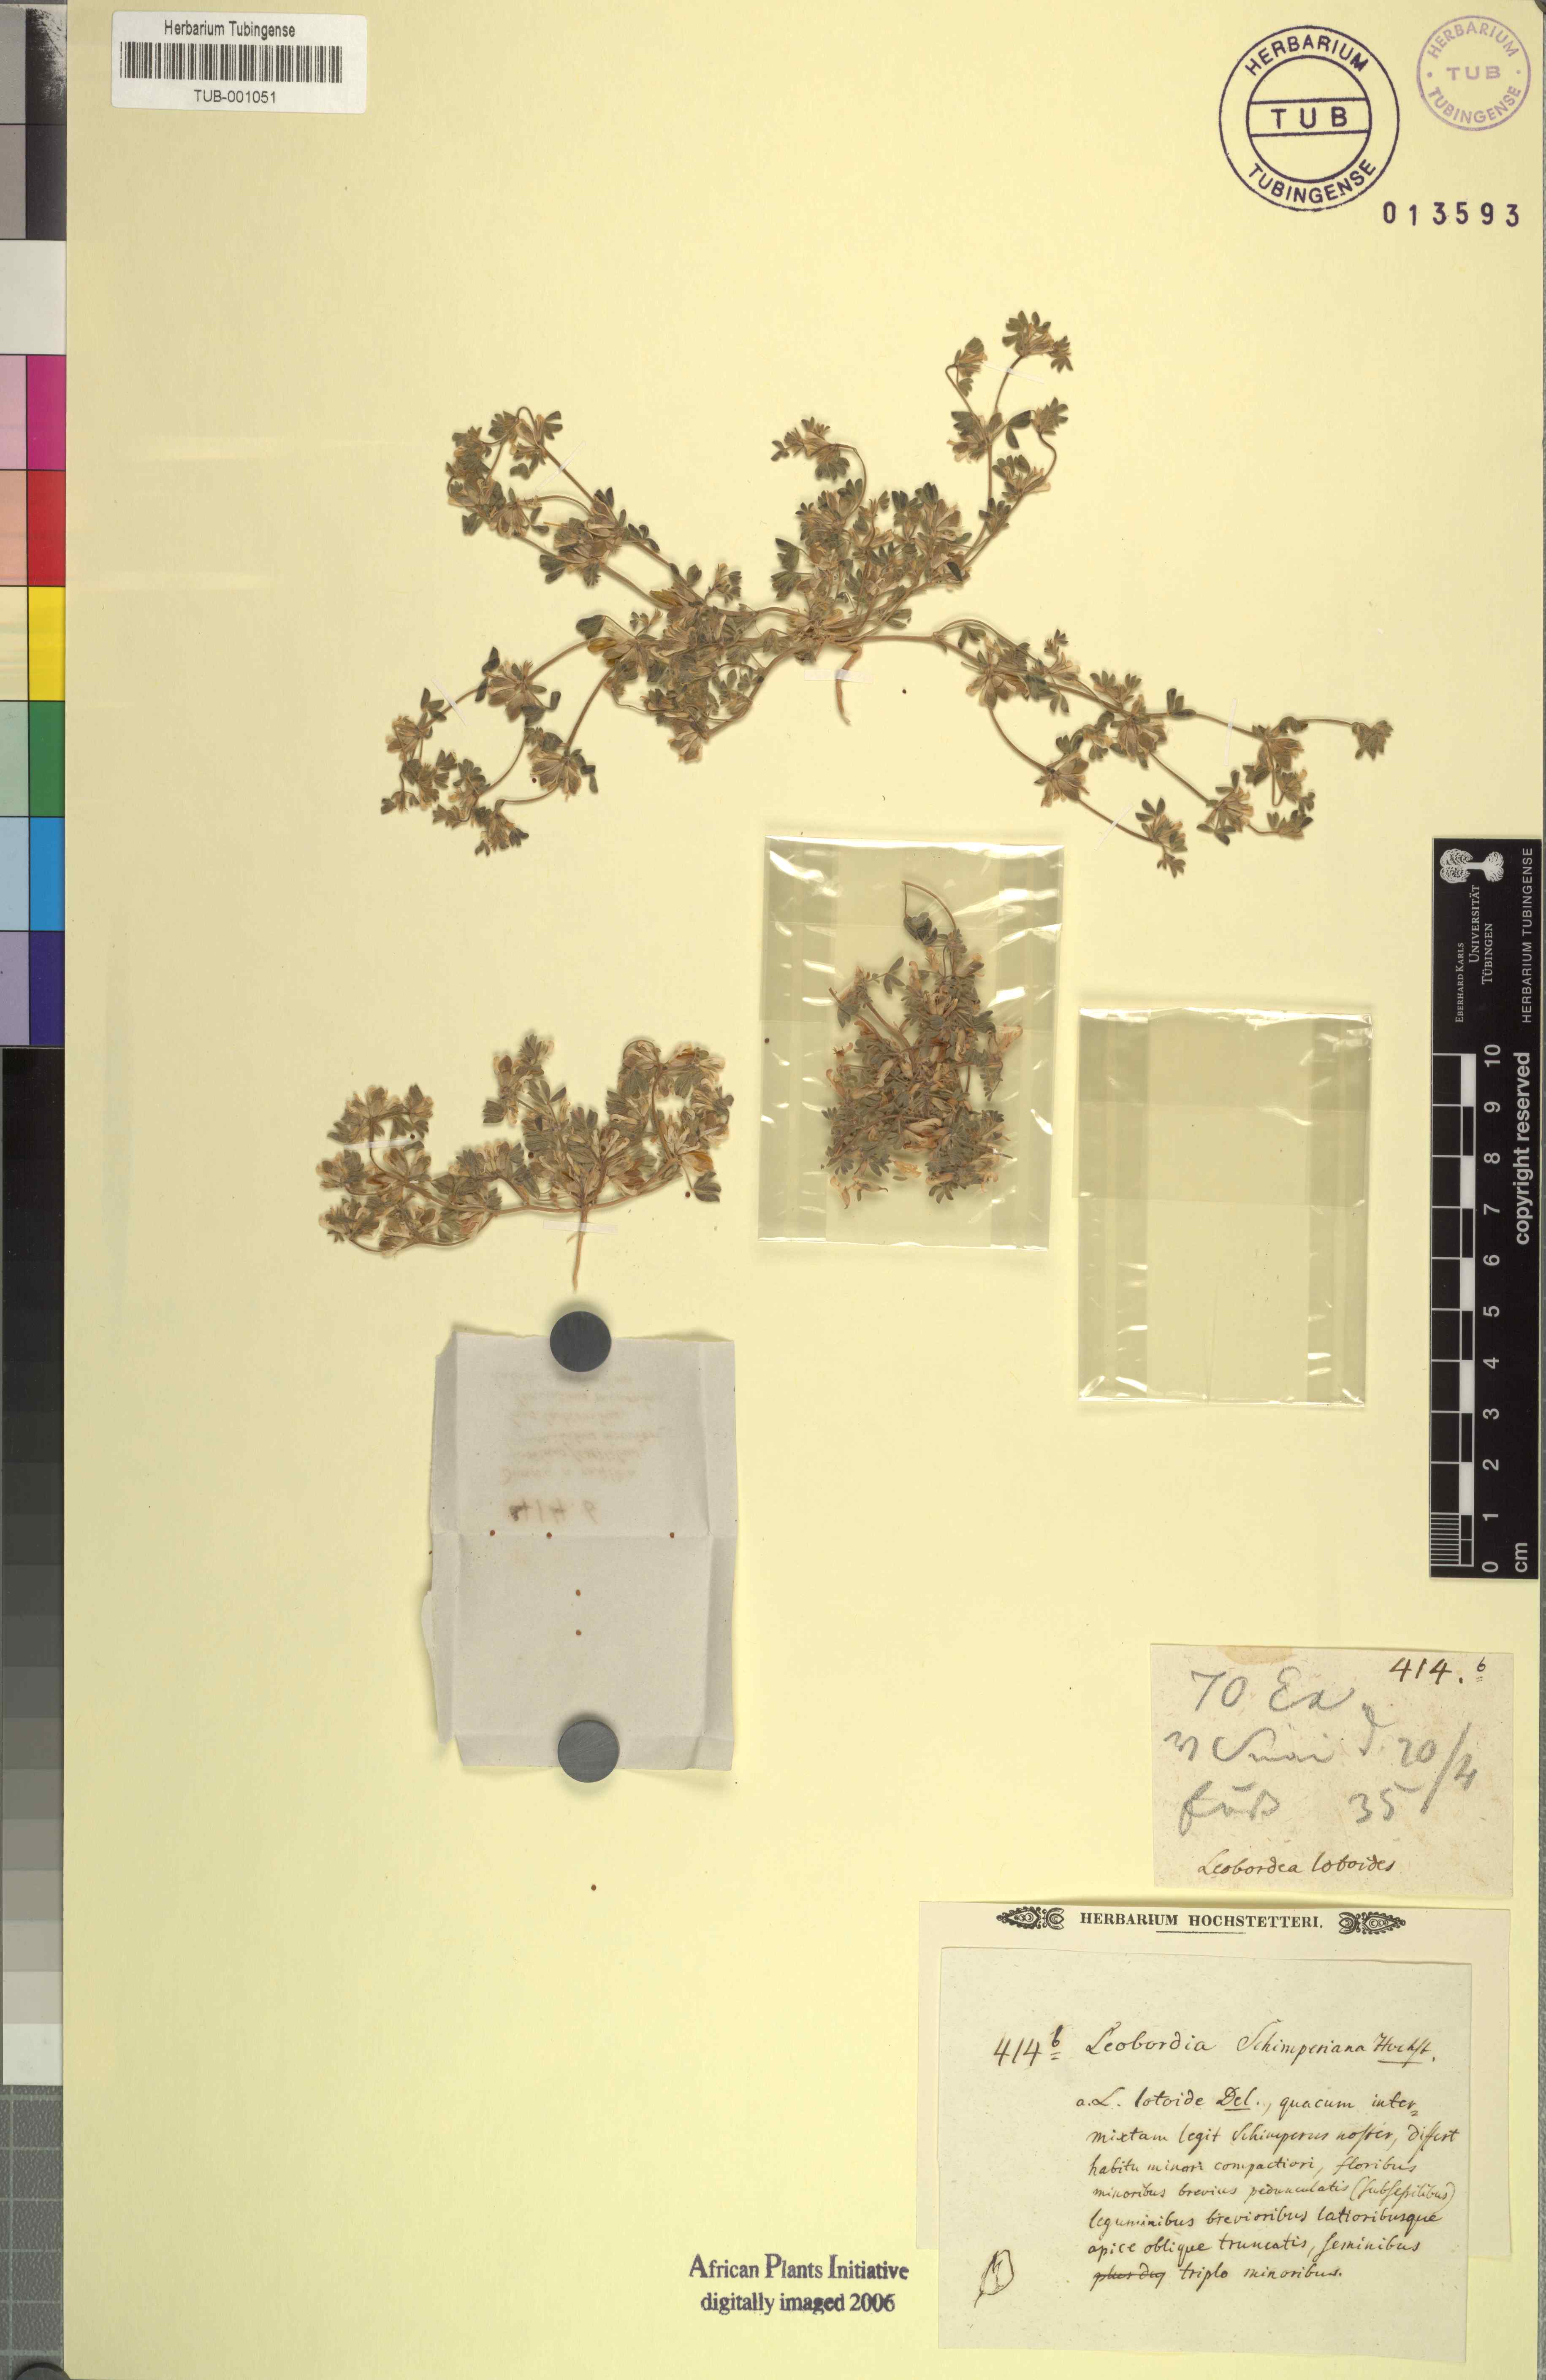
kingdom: Plantae
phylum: Tracheophyta
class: Magnoliopsida
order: Fabales
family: Fabaceae
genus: Leobordea
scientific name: Leobordea platycarpa
